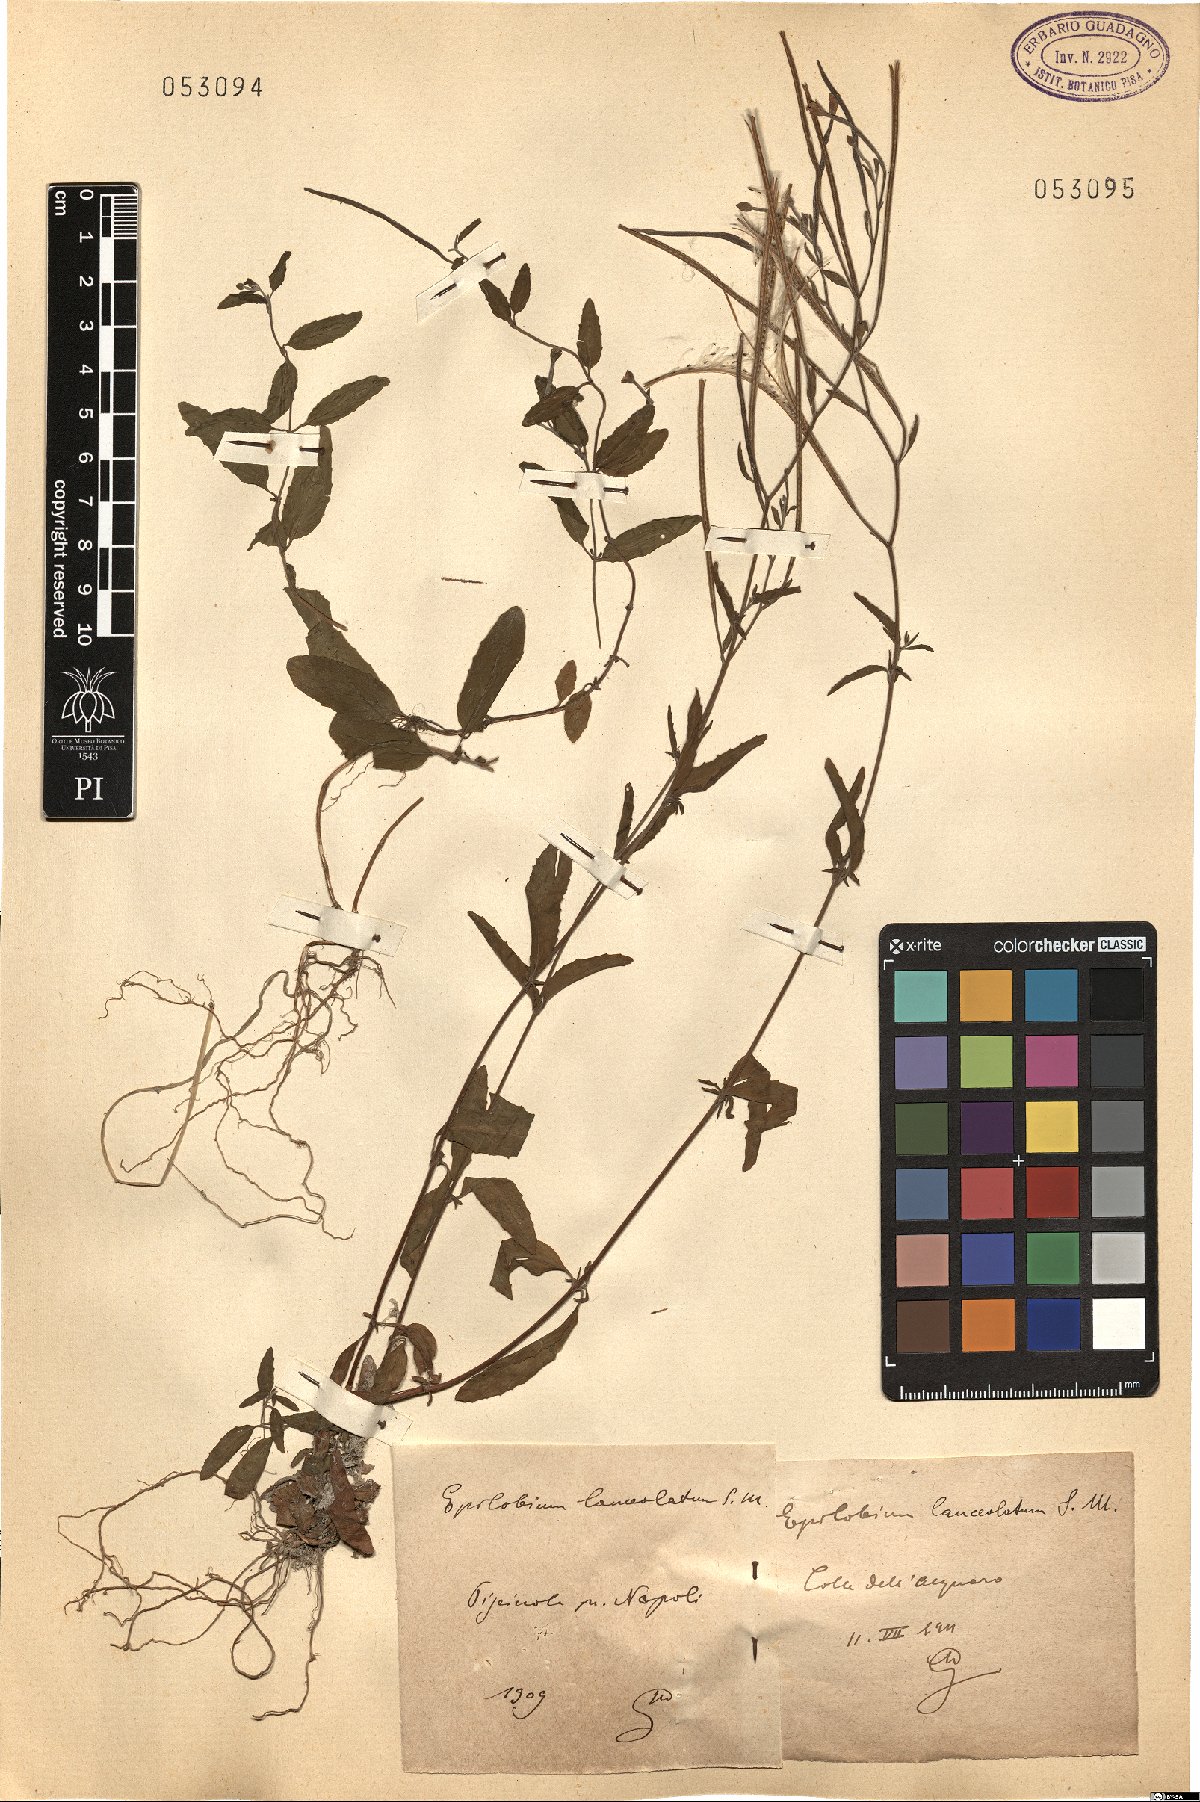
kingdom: Plantae
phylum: Tracheophyta
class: Magnoliopsida
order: Myrtales
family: Onagraceae
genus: Epilobium
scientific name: Epilobium lanceolatum
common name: Spear-leaved willowherb
